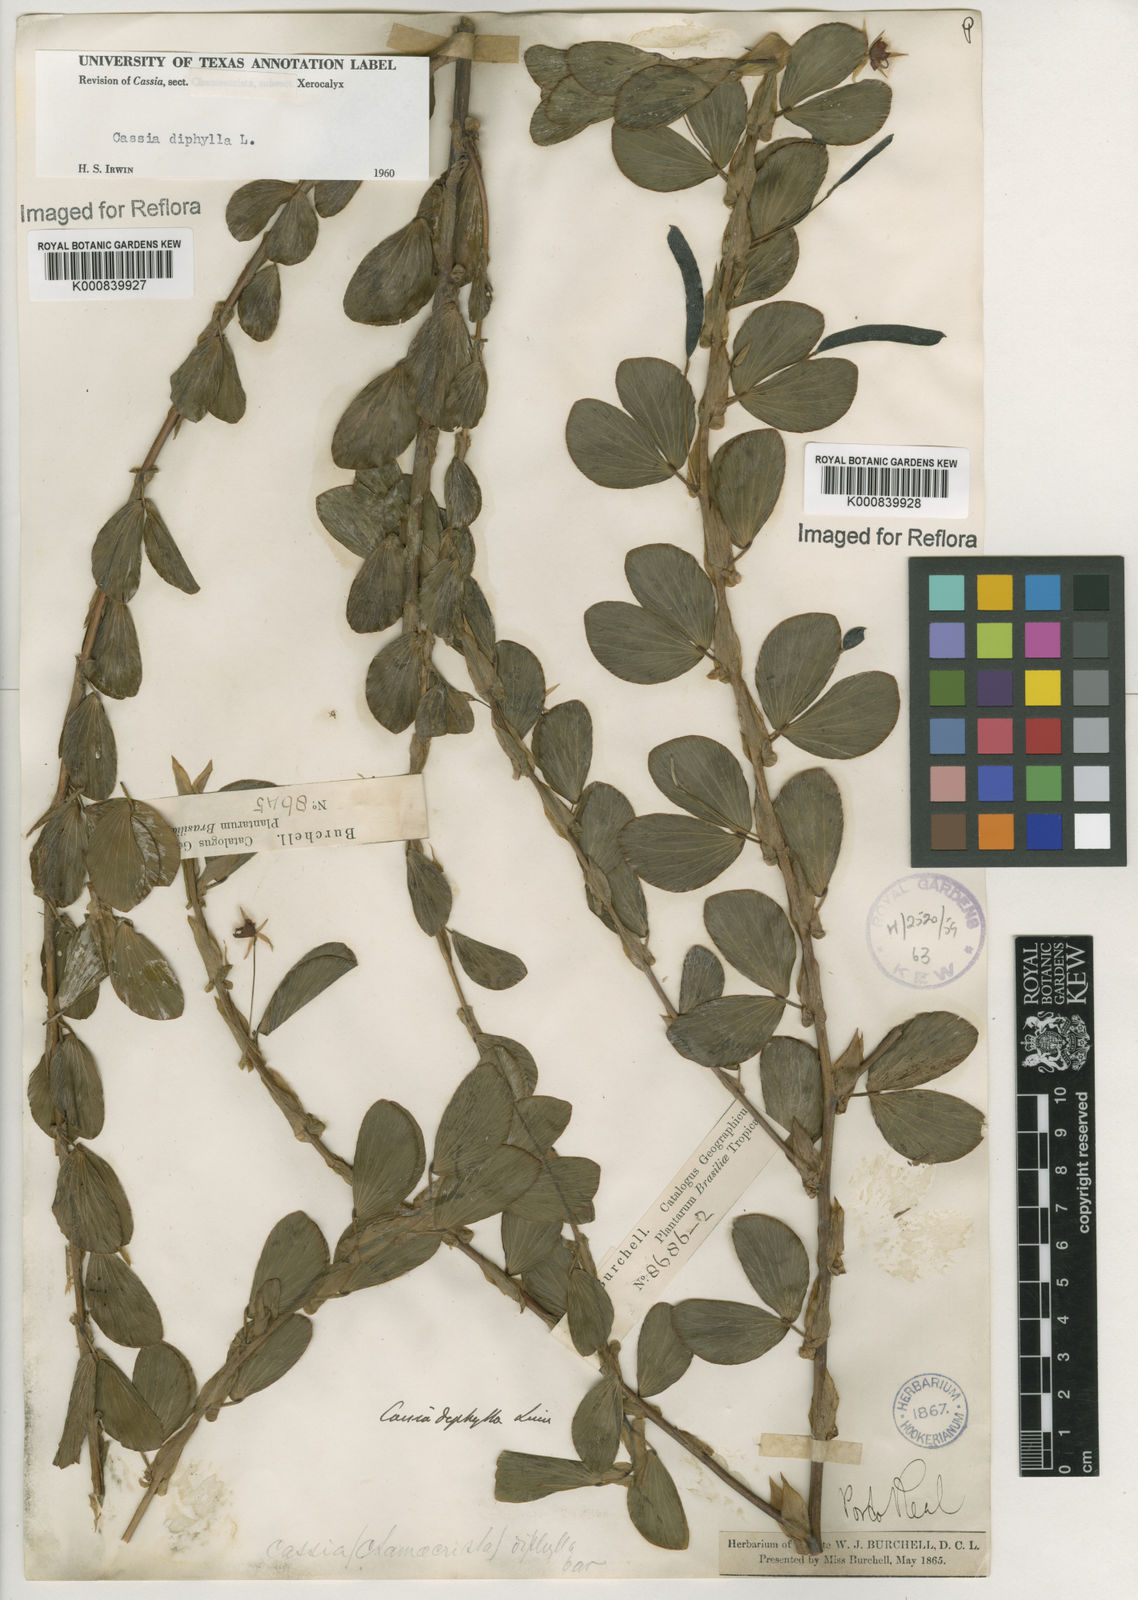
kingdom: Plantae
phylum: Tracheophyta
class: Magnoliopsida
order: Fabales
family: Fabaceae
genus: Chamaecrista
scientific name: Chamaecrista diphylla
